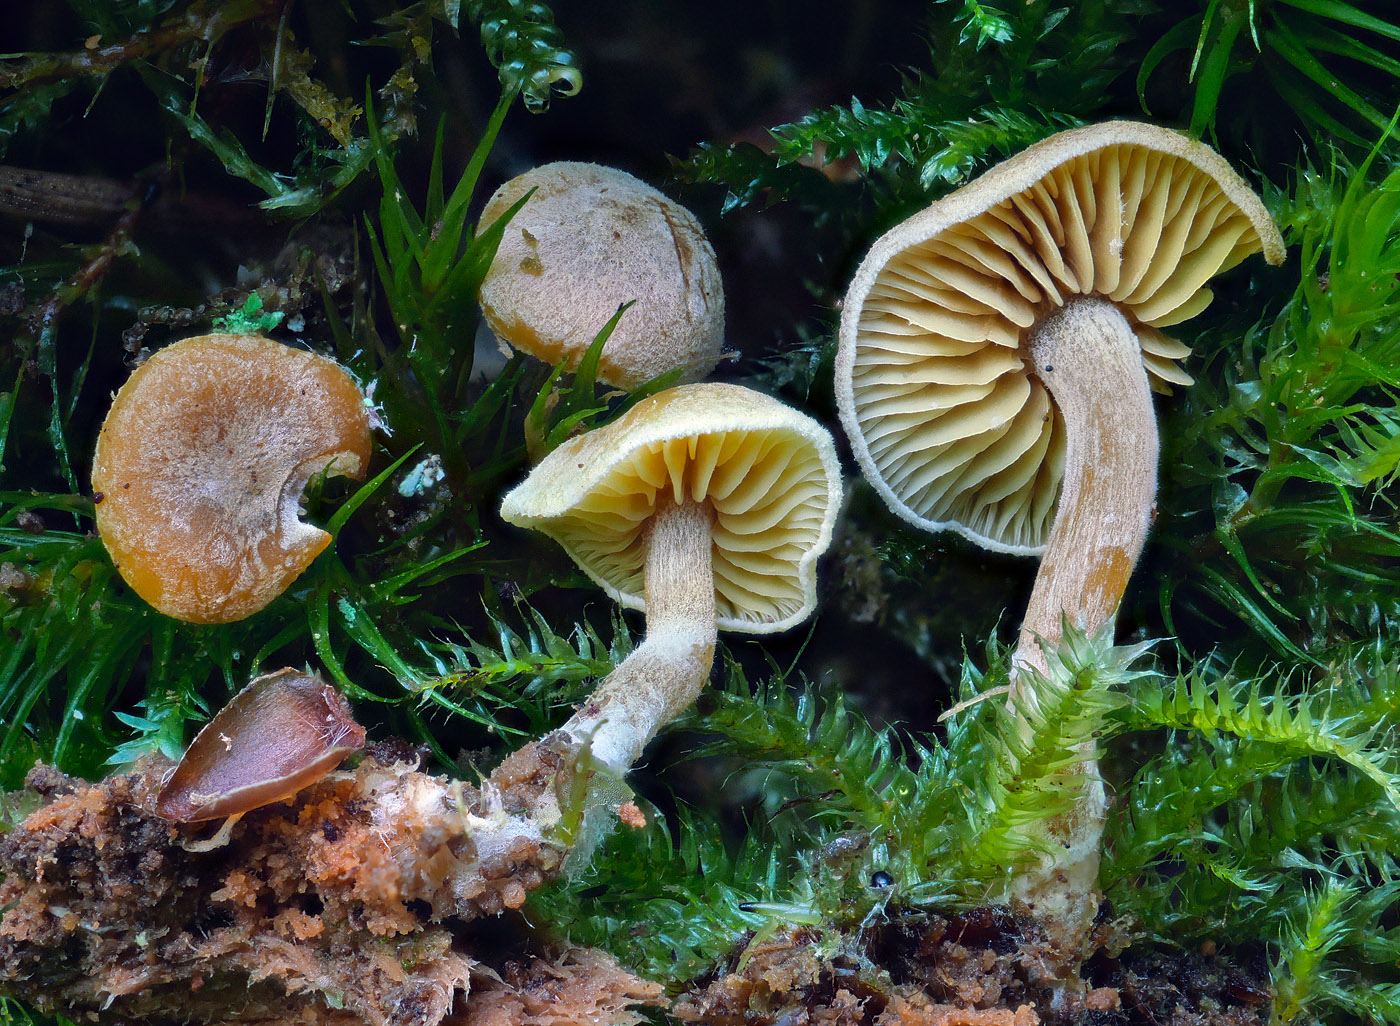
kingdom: Fungi
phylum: Basidiomycota
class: Agaricomycetes
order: Agaricales
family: Callistosporiaceae
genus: Callistosporium
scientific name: Callistosporium pinicola
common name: småsporet ravhat
